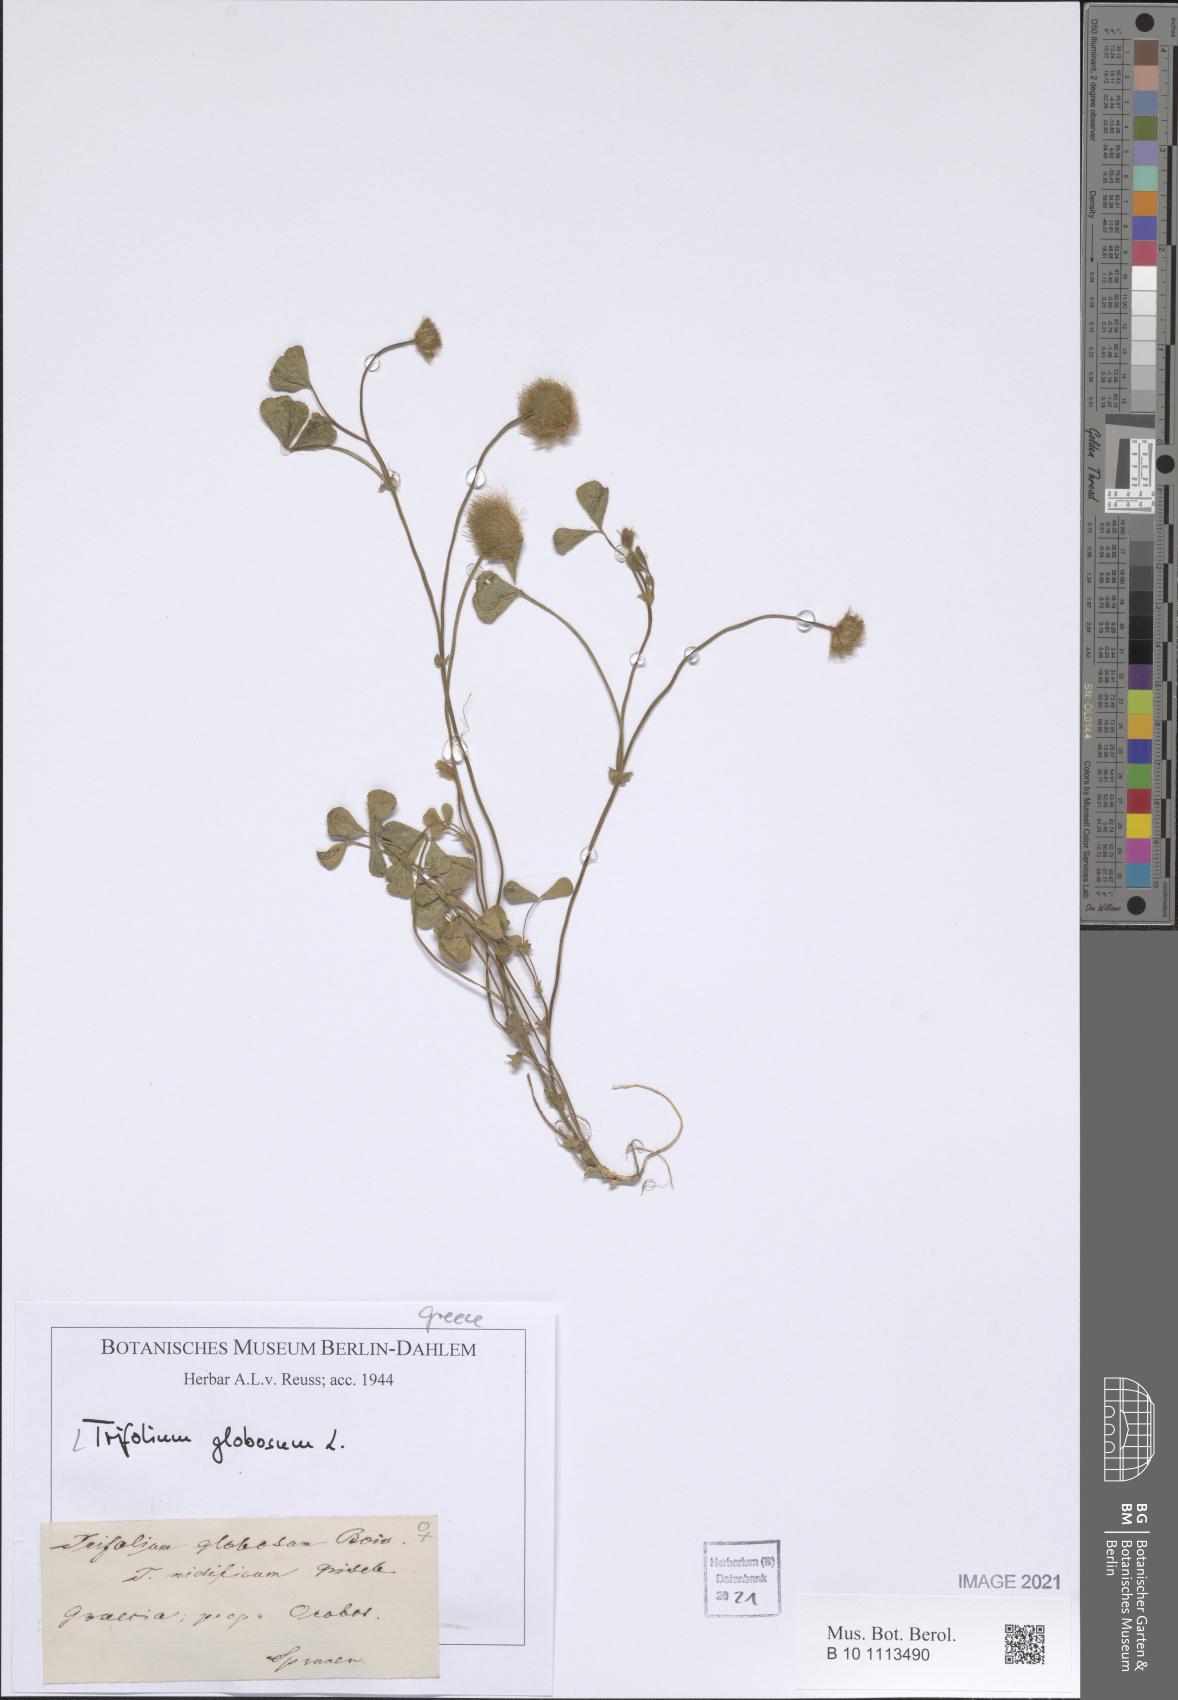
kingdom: Plantae
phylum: Tracheophyta
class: Magnoliopsida
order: Fabales
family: Fabaceae
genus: Trifolium
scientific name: Trifolium globosum
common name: Round-head clover
